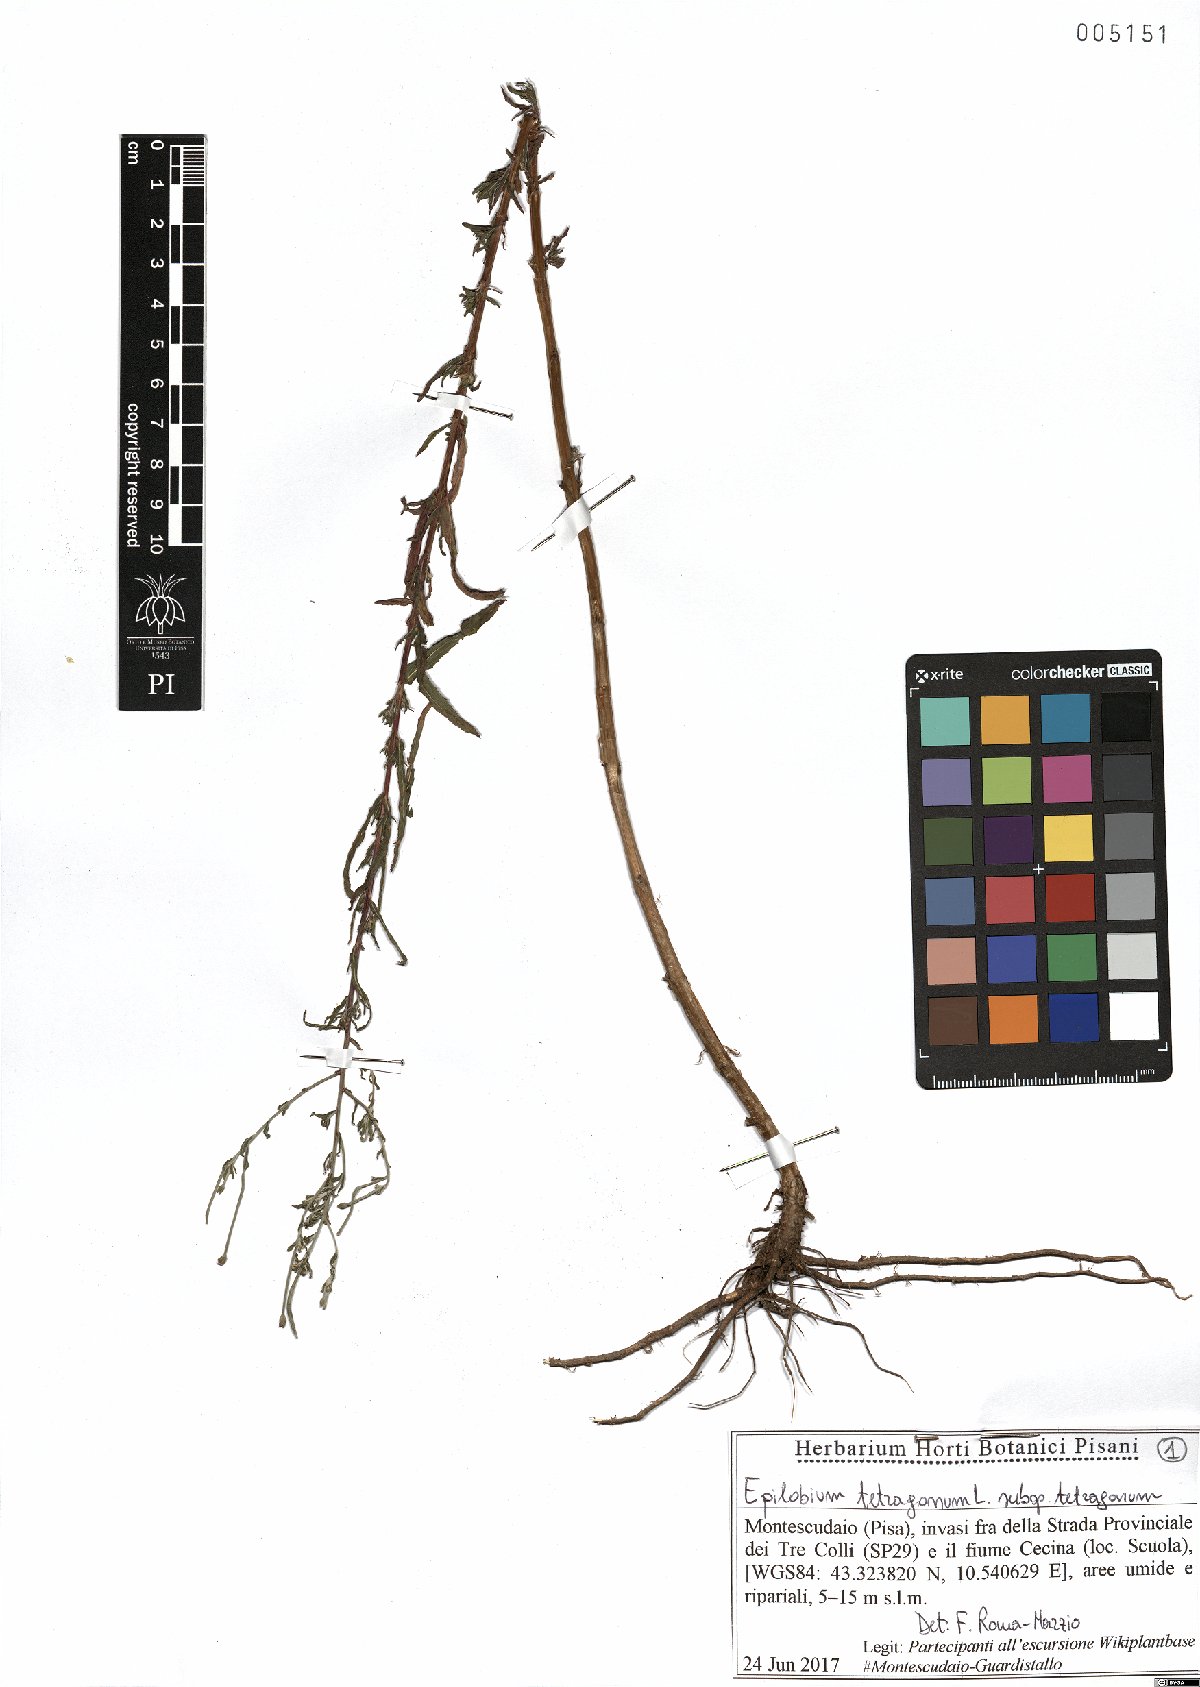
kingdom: Plantae
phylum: Tracheophyta
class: Magnoliopsida
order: Myrtales
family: Onagraceae
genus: Epilobium
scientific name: Epilobium tetragonum
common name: Square-stemmed willowherb
